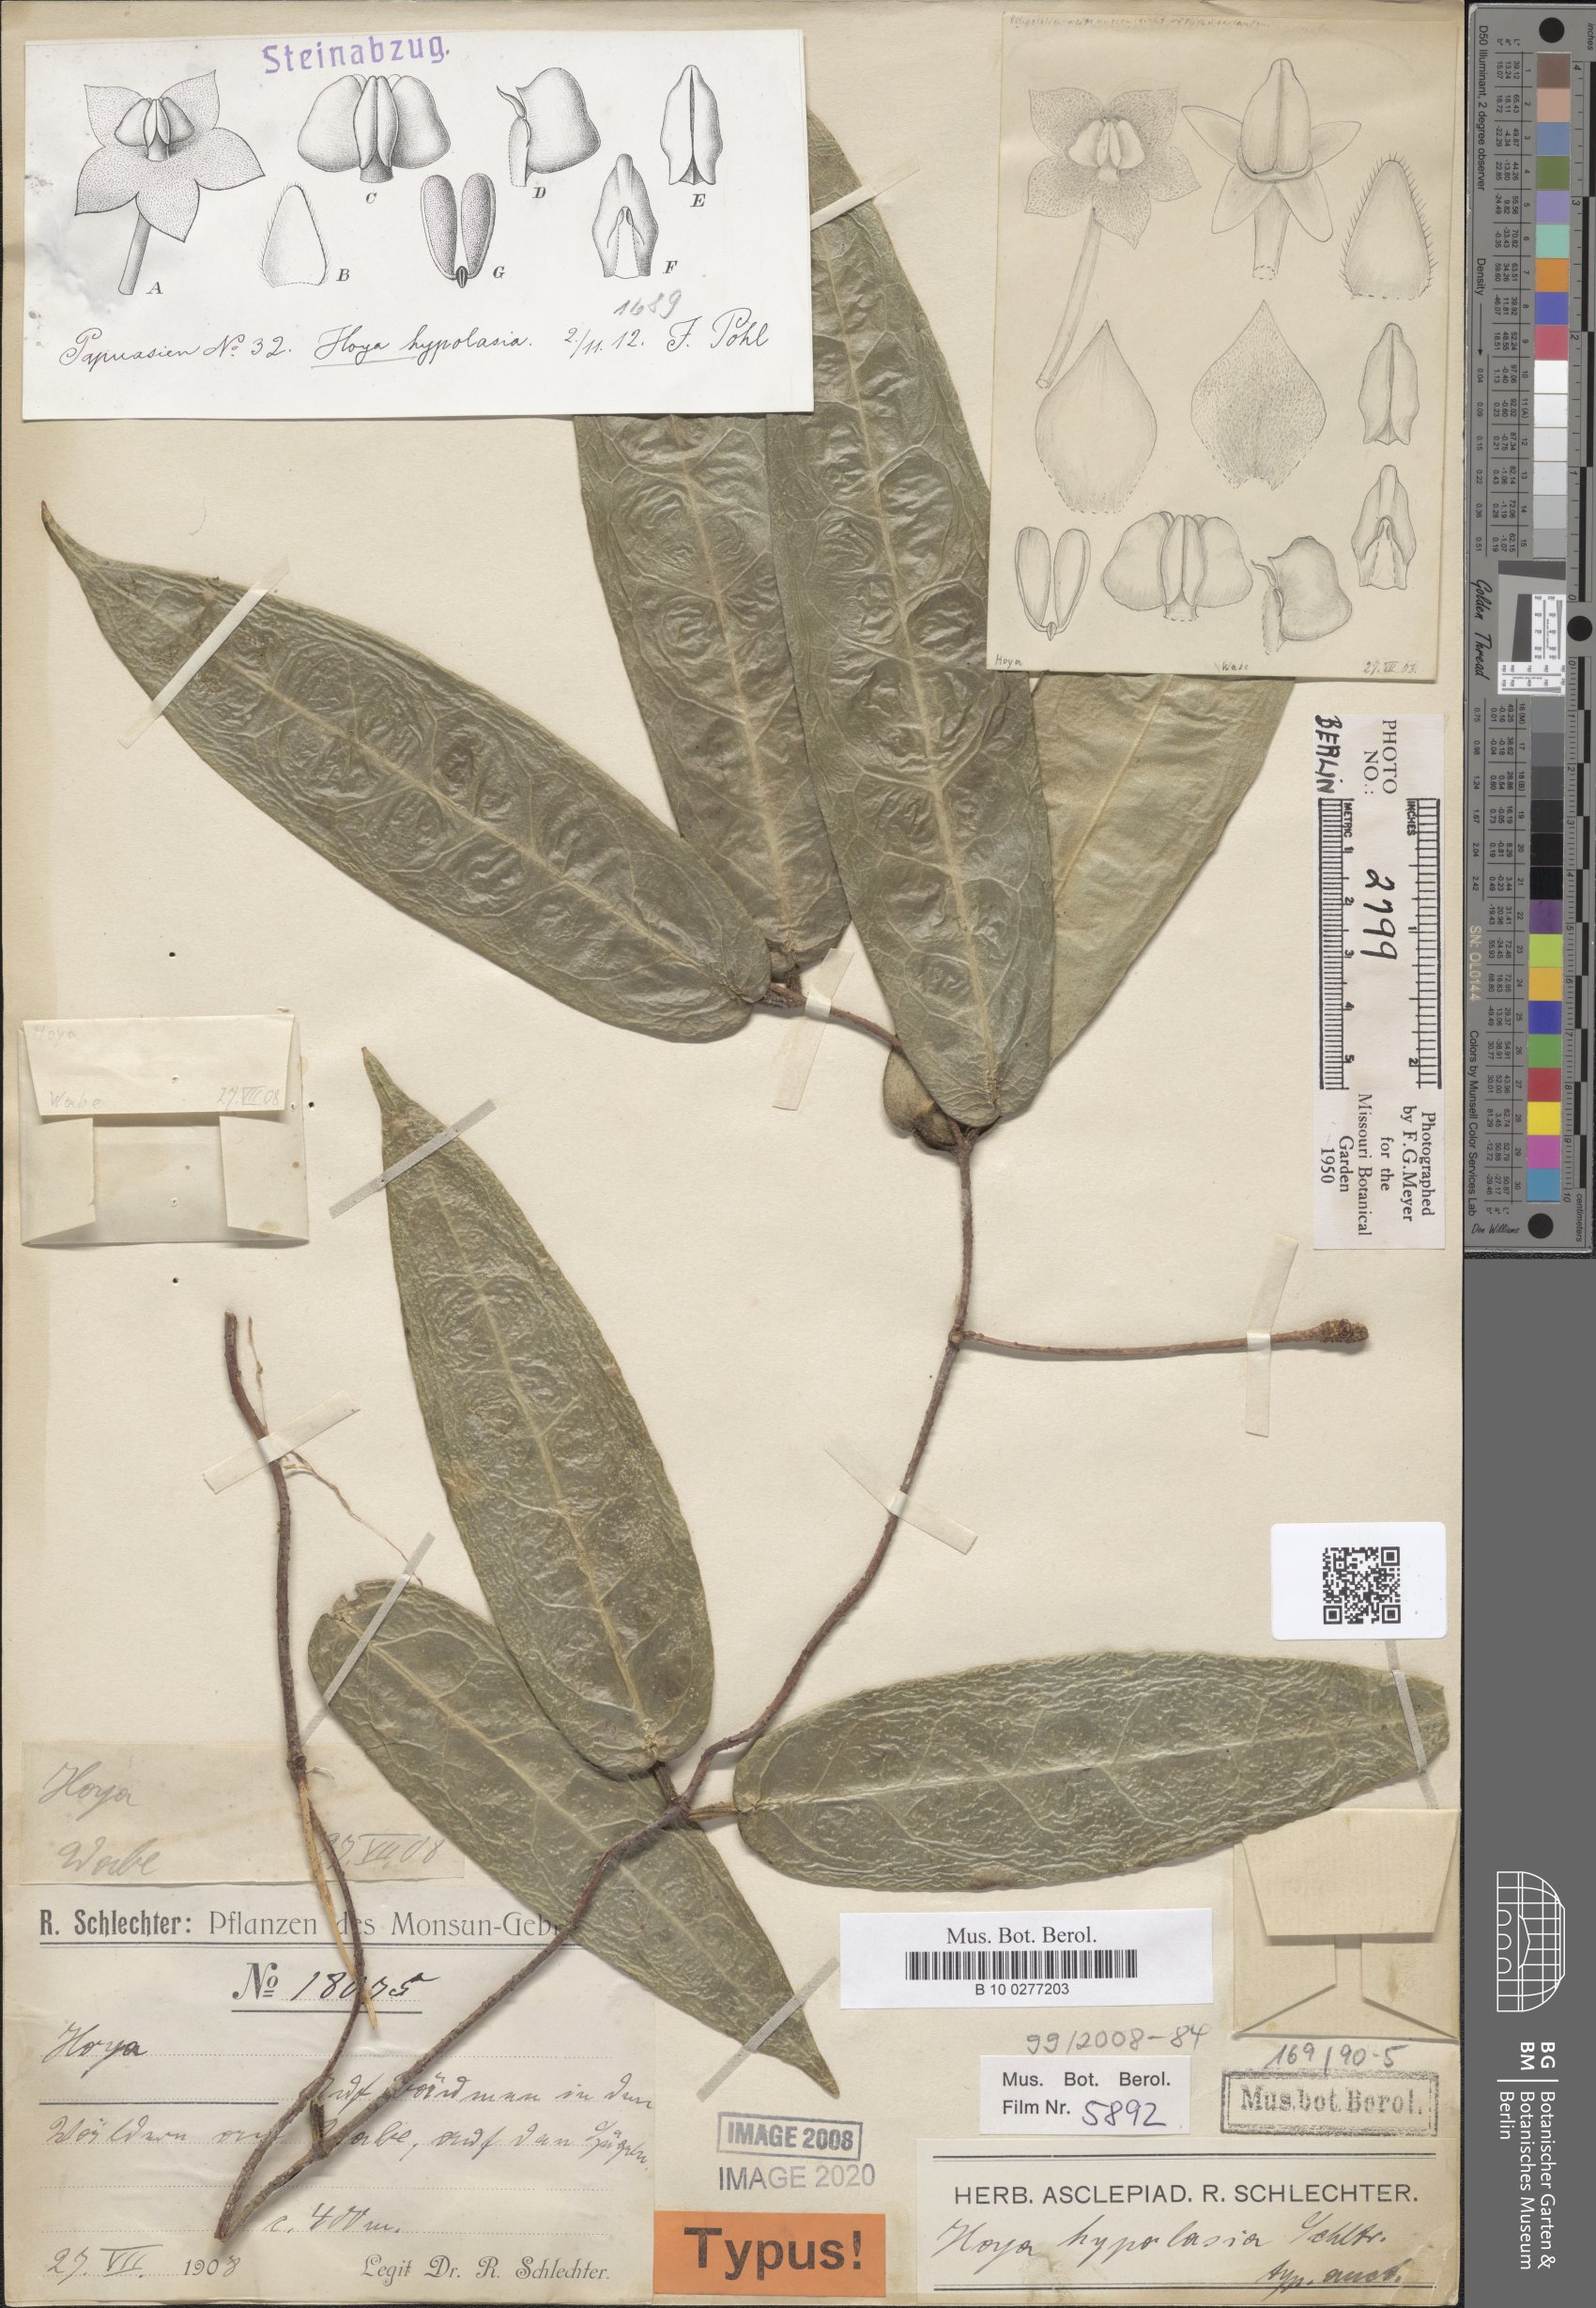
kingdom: Plantae
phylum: Tracheophyta
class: Magnoliopsida
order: Gentianales
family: Apocynaceae
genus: Hoya
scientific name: Hoya hypolasia
